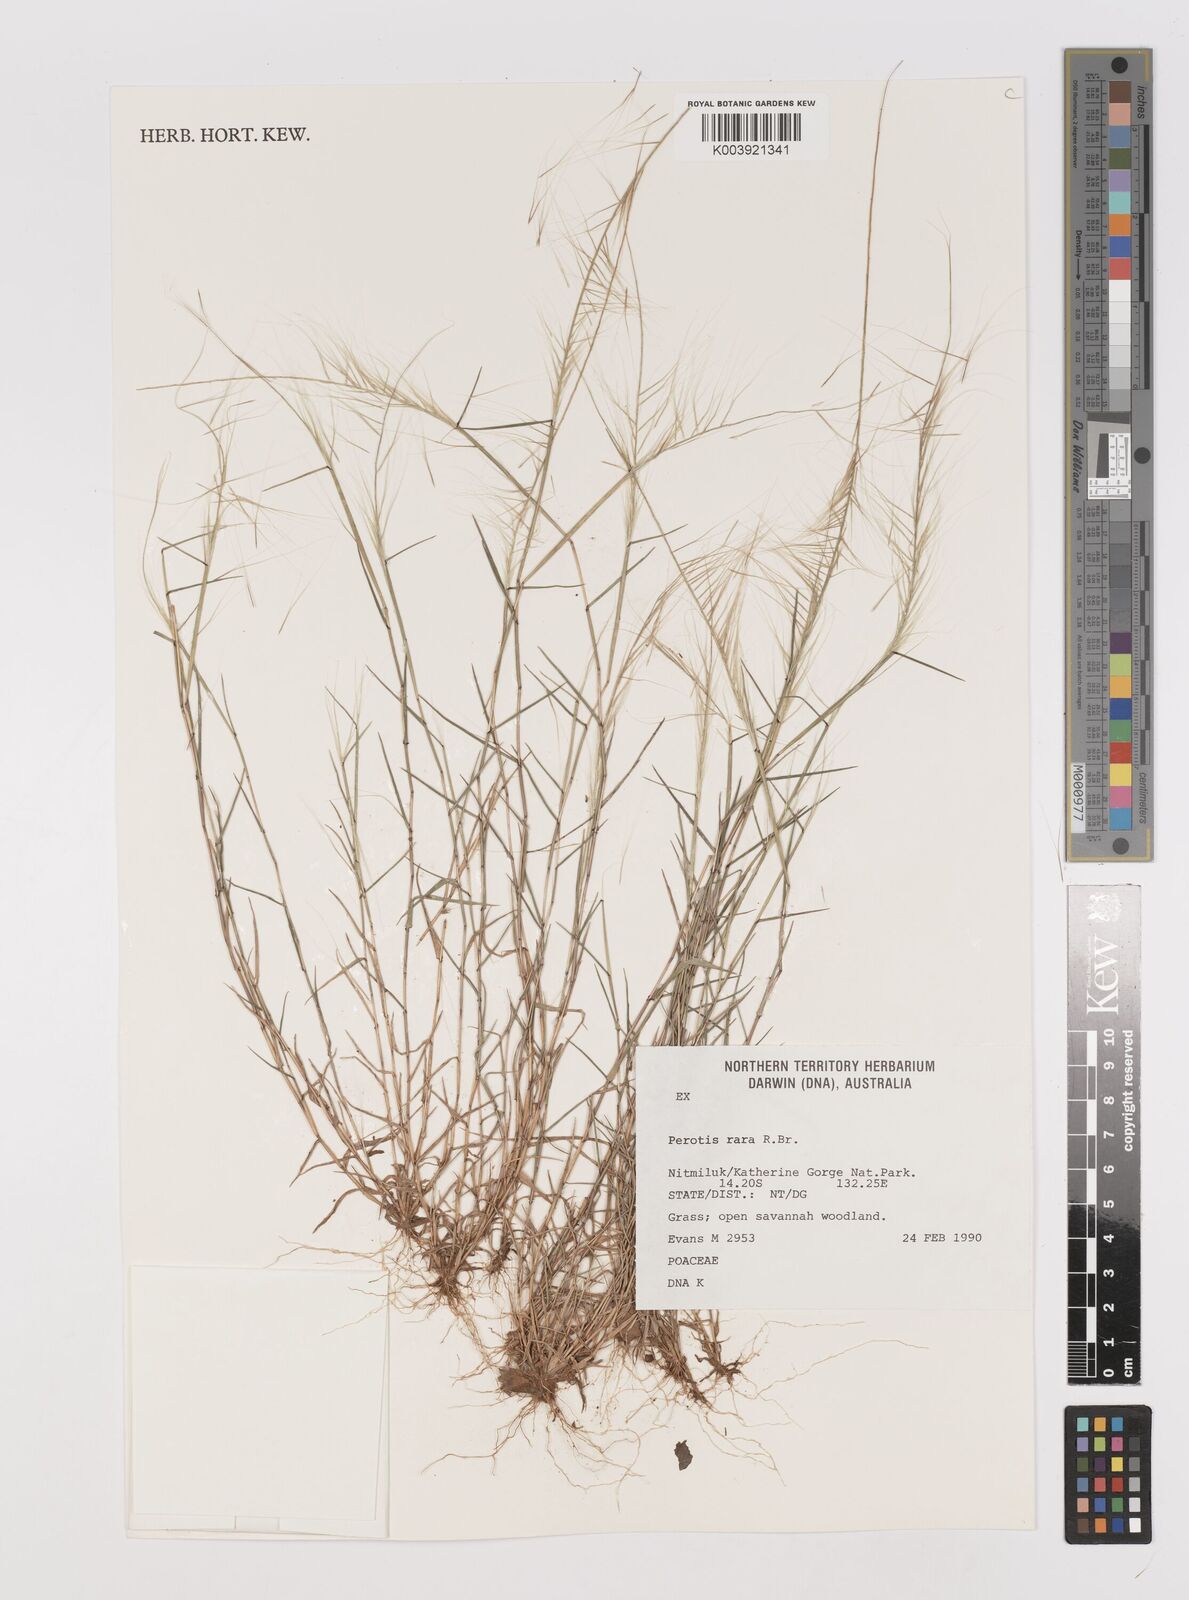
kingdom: Plantae
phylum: Tracheophyta
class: Liliopsida
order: Poales
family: Poaceae
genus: Perotis
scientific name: Perotis rara
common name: Comet grass
